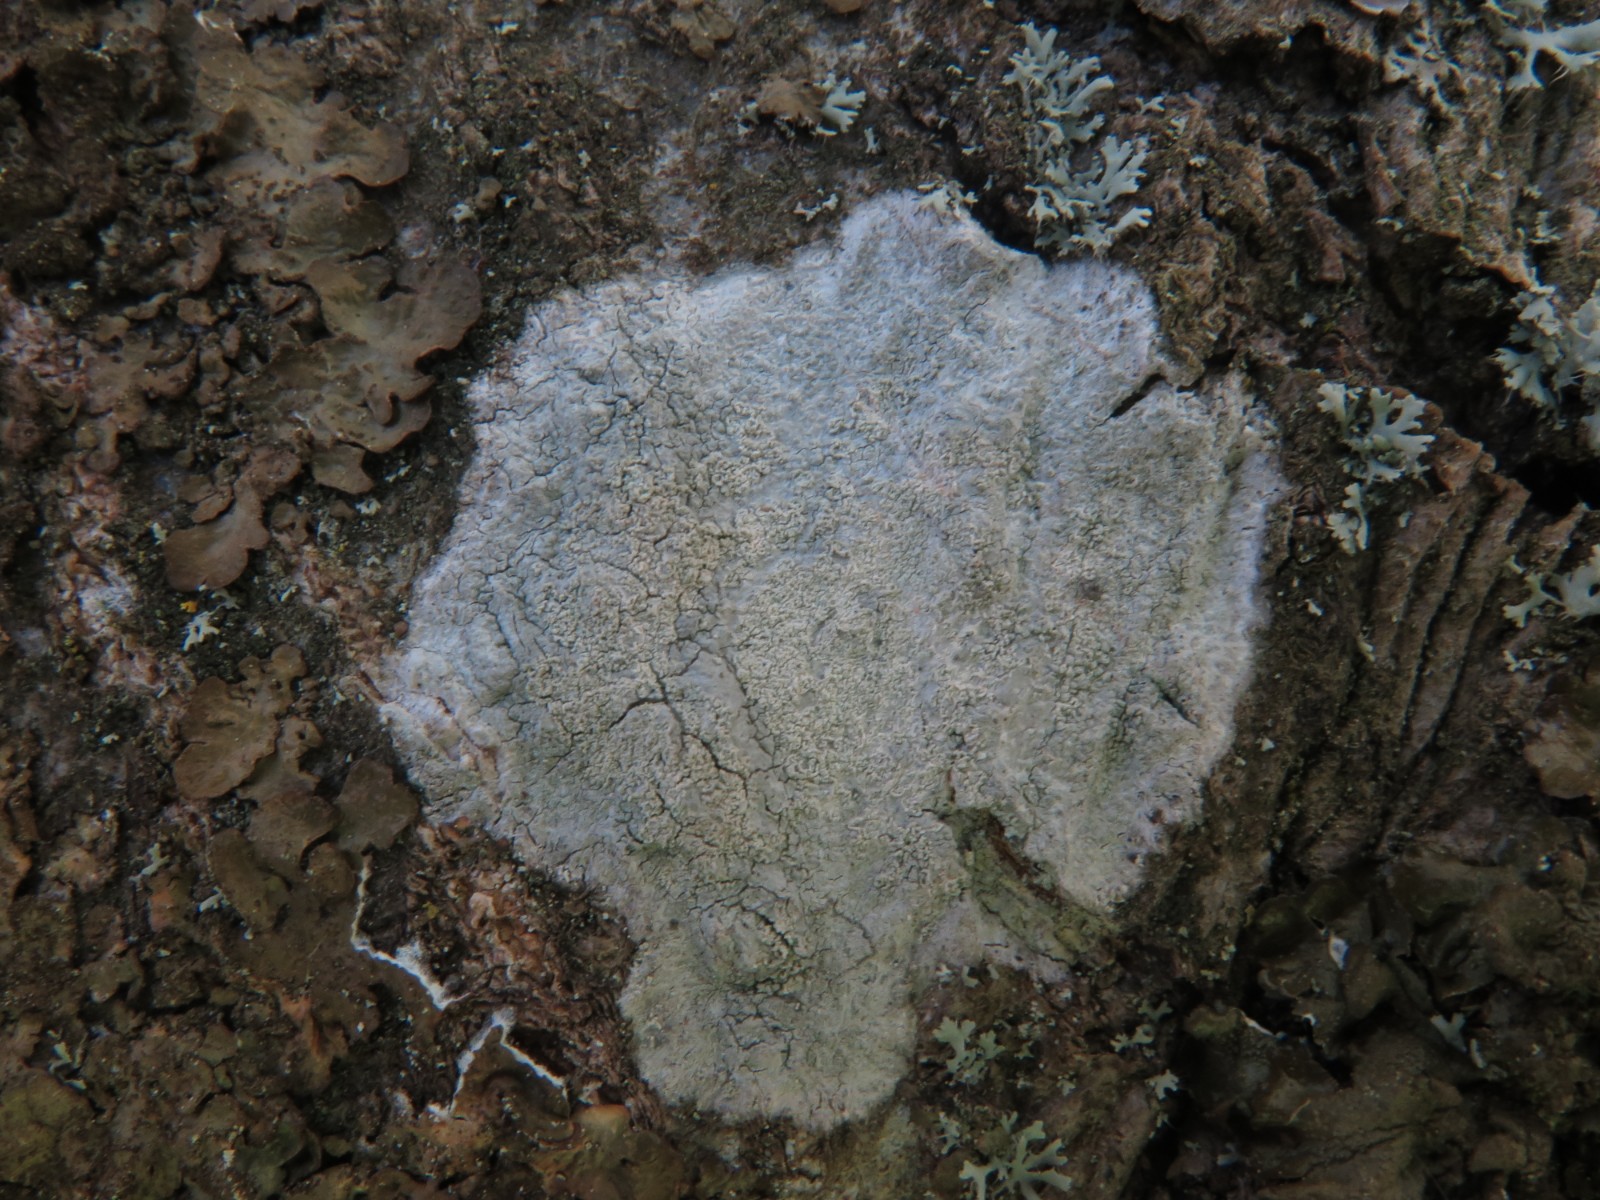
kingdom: Fungi
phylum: Ascomycota
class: Lecanoromycetes
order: Ostropales
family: Phlyctidaceae
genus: Phlyctis
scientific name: Phlyctis argena
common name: almindelig sølvlav
